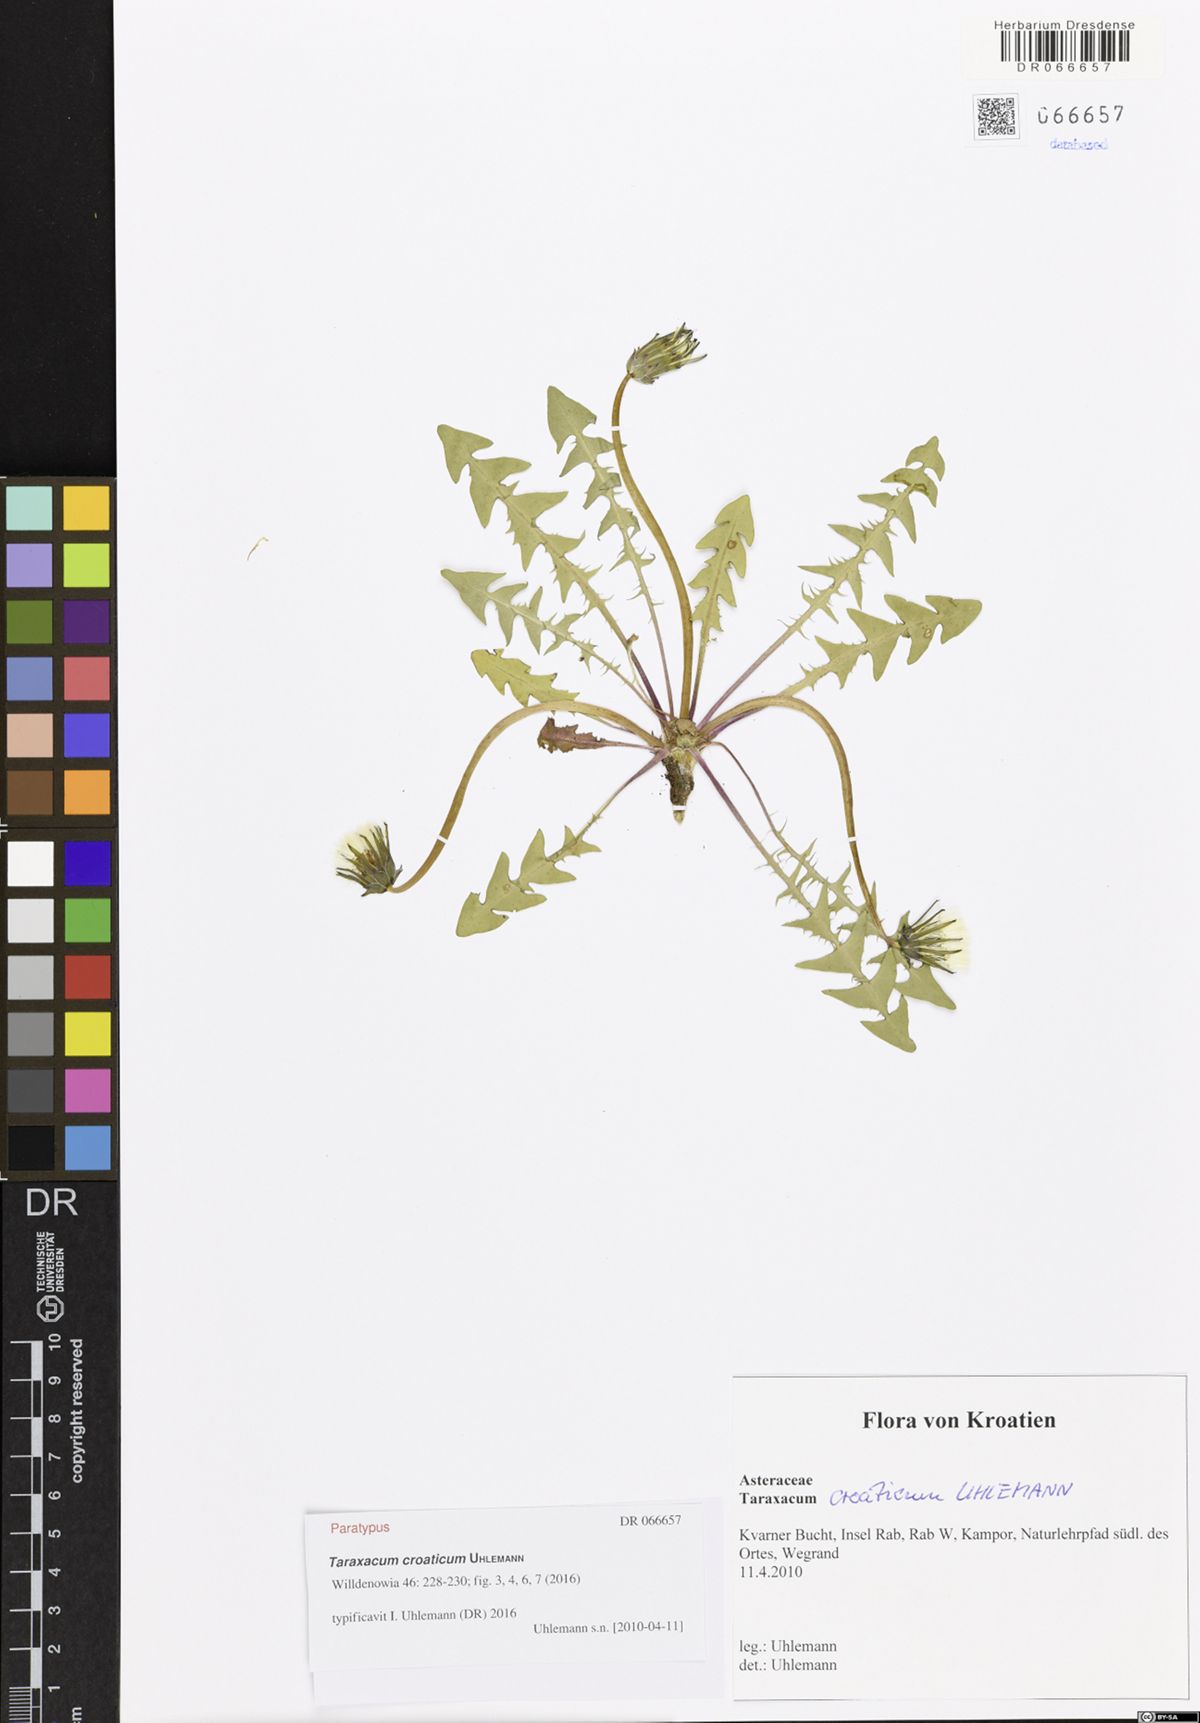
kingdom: Plantae
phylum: Tracheophyta
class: Magnoliopsida
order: Asterales
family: Asteraceae
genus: Taraxacum
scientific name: Taraxacum croaticum
